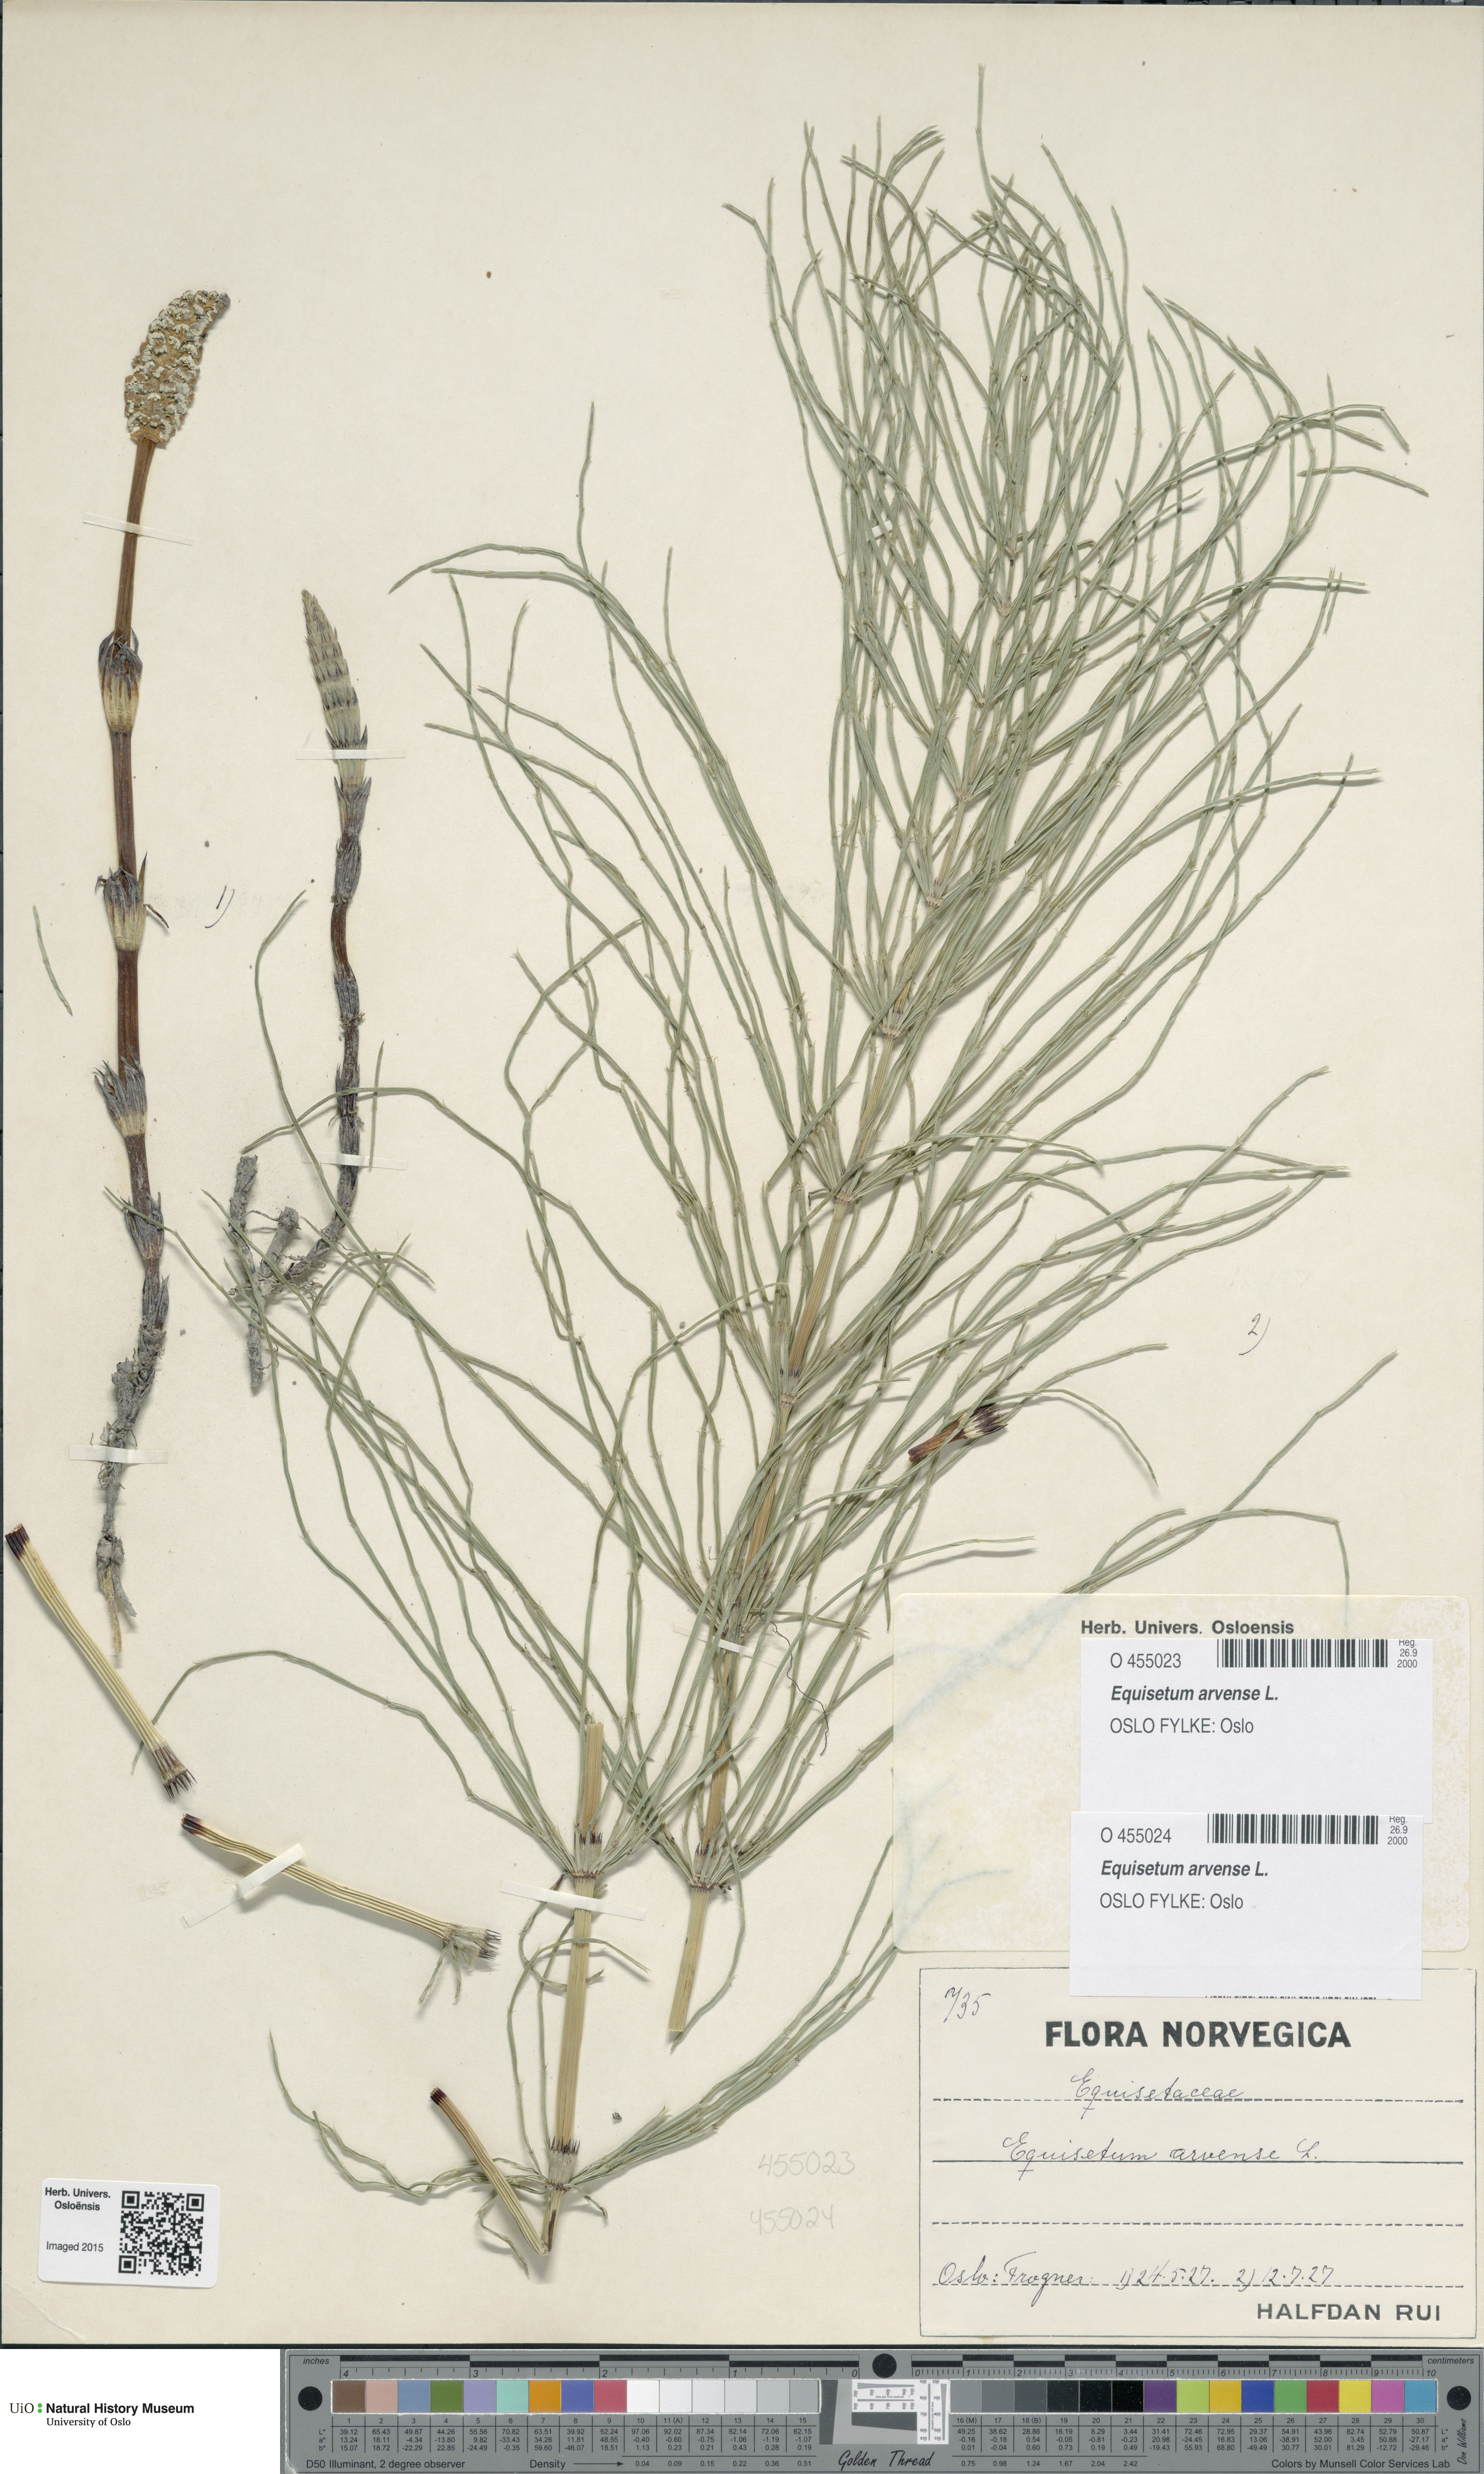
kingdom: Plantae
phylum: Tracheophyta
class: Polypodiopsida
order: Equisetales
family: Equisetaceae
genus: Equisetum
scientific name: Equisetum arvense
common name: Field horsetail
